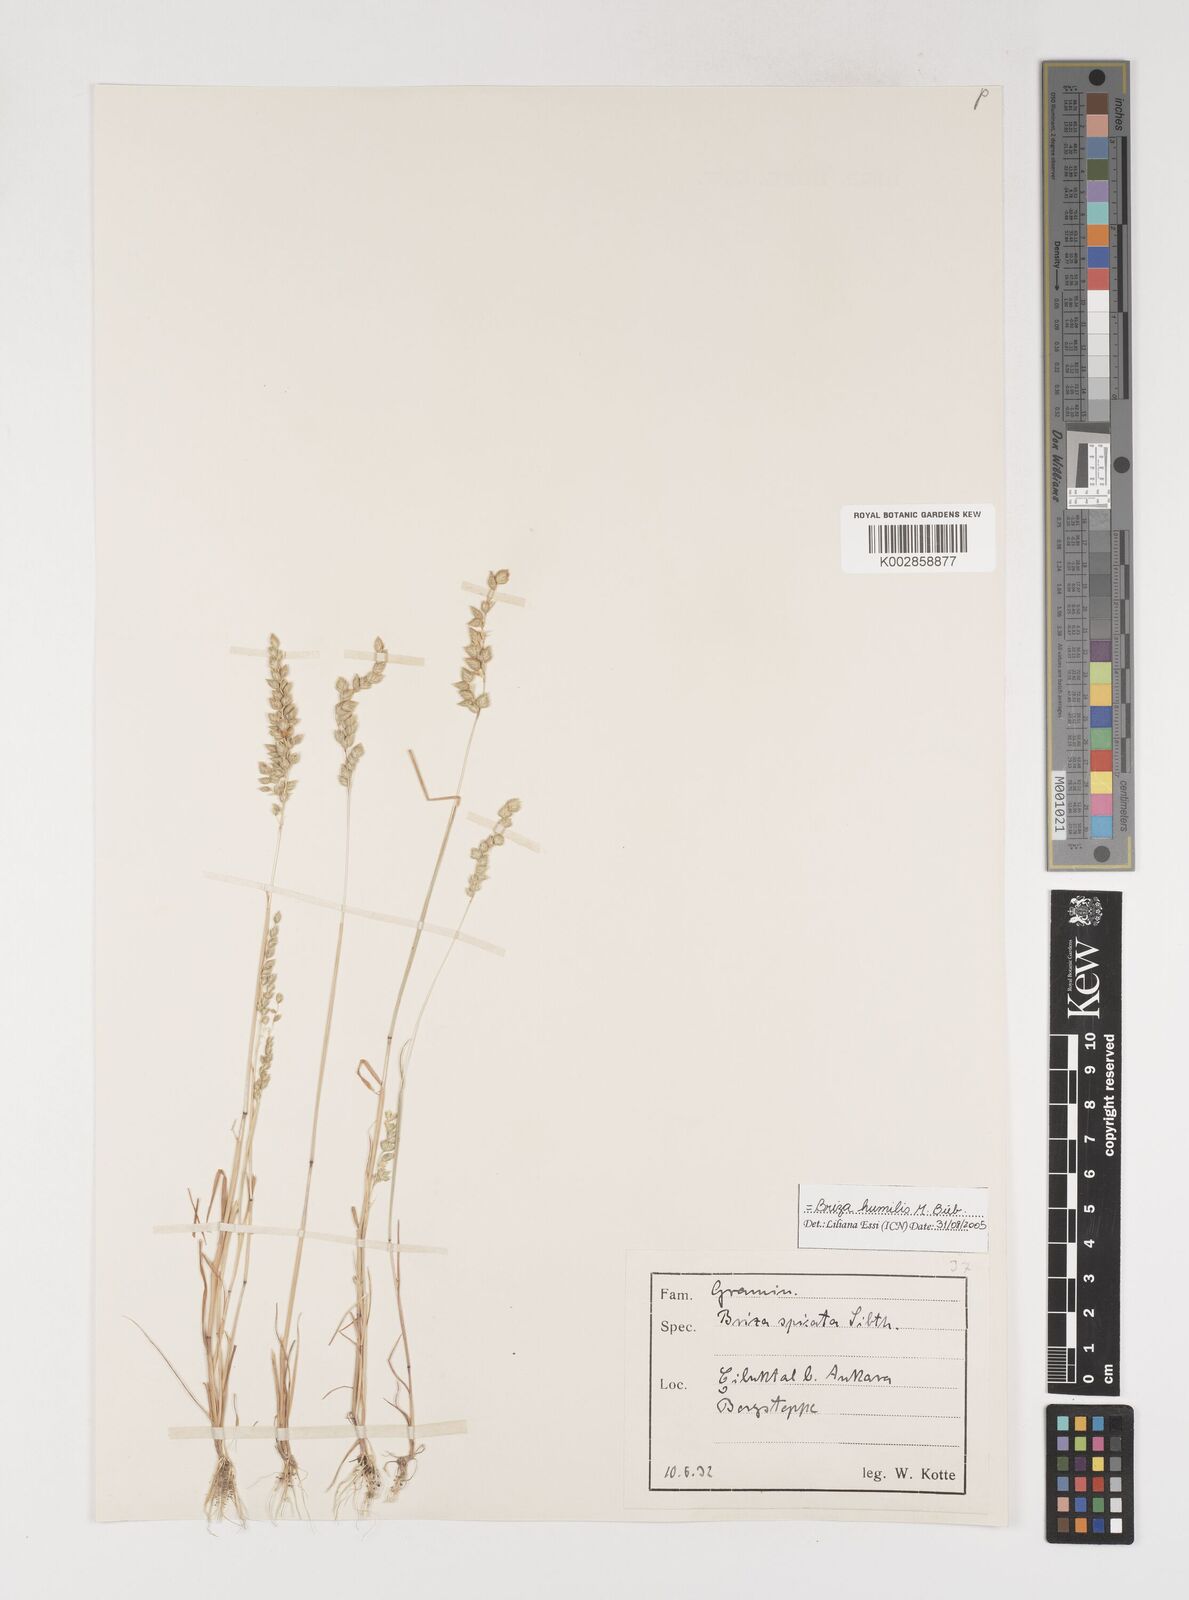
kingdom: Plantae
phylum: Tracheophyta
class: Liliopsida
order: Poales
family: Poaceae
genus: Briza
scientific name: Briza humilis
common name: Spiked quaking grass
